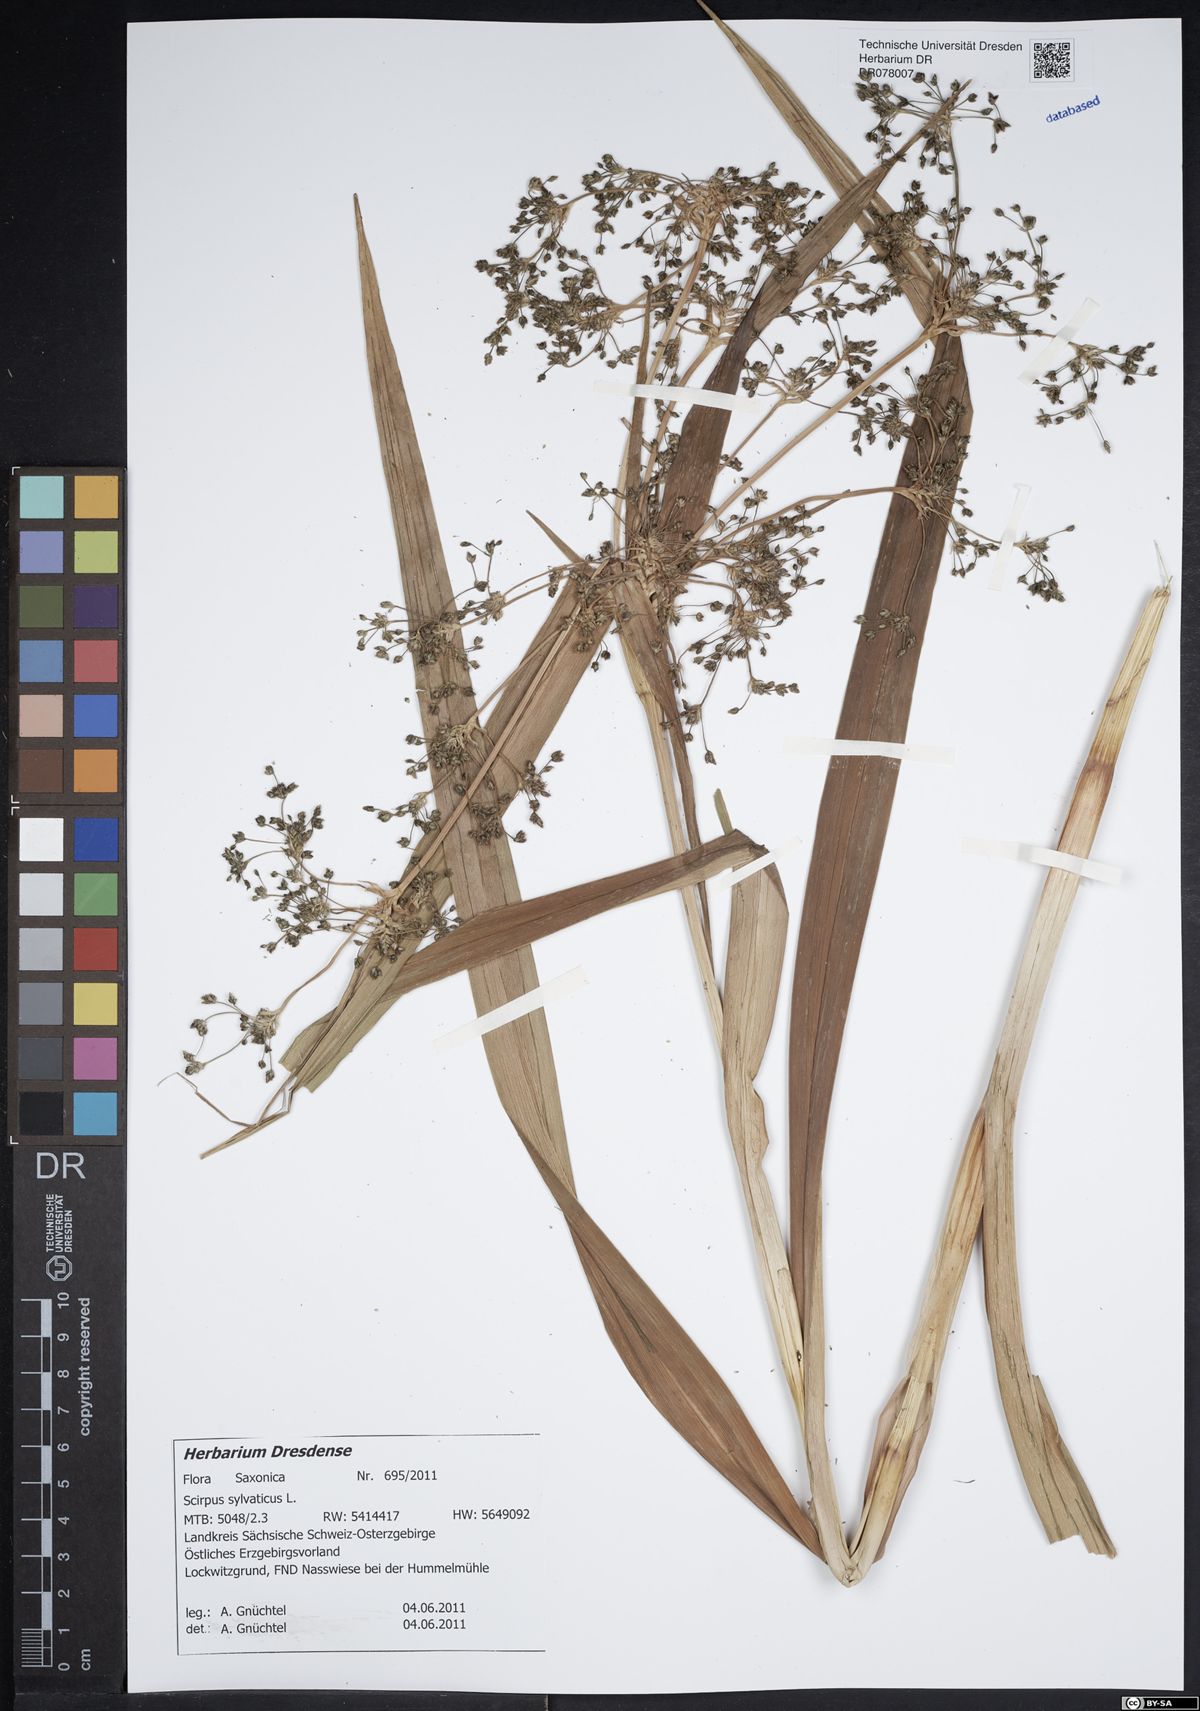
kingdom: Plantae
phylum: Tracheophyta
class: Liliopsida
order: Poales
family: Cyperaceae
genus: Scirpus
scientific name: Scirpus sylvaticus
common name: Wood club-rush
